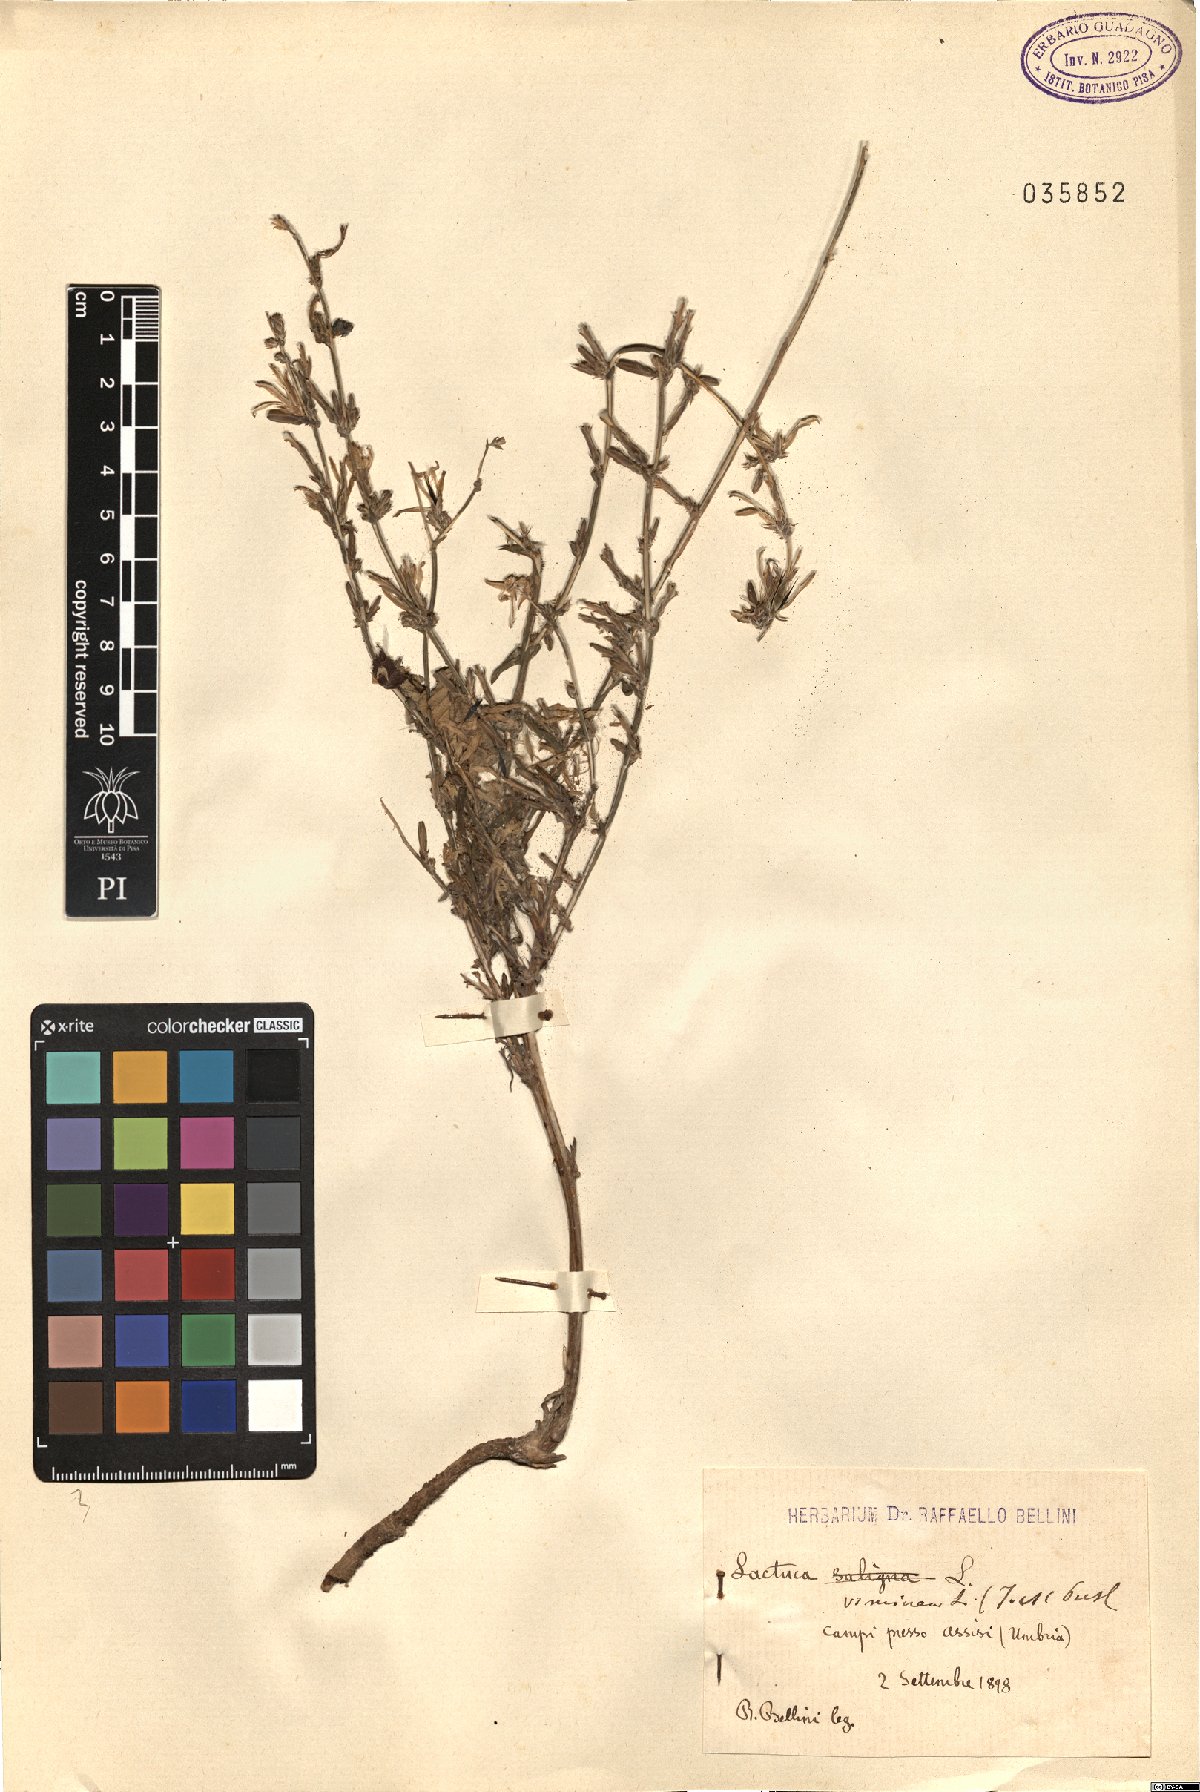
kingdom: Plantae
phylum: Tracheophyta
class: Magnoliopsida
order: Asterales
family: Asteraceae
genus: Lactuca
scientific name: Lactuca viminea
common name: Pliant lettuce
